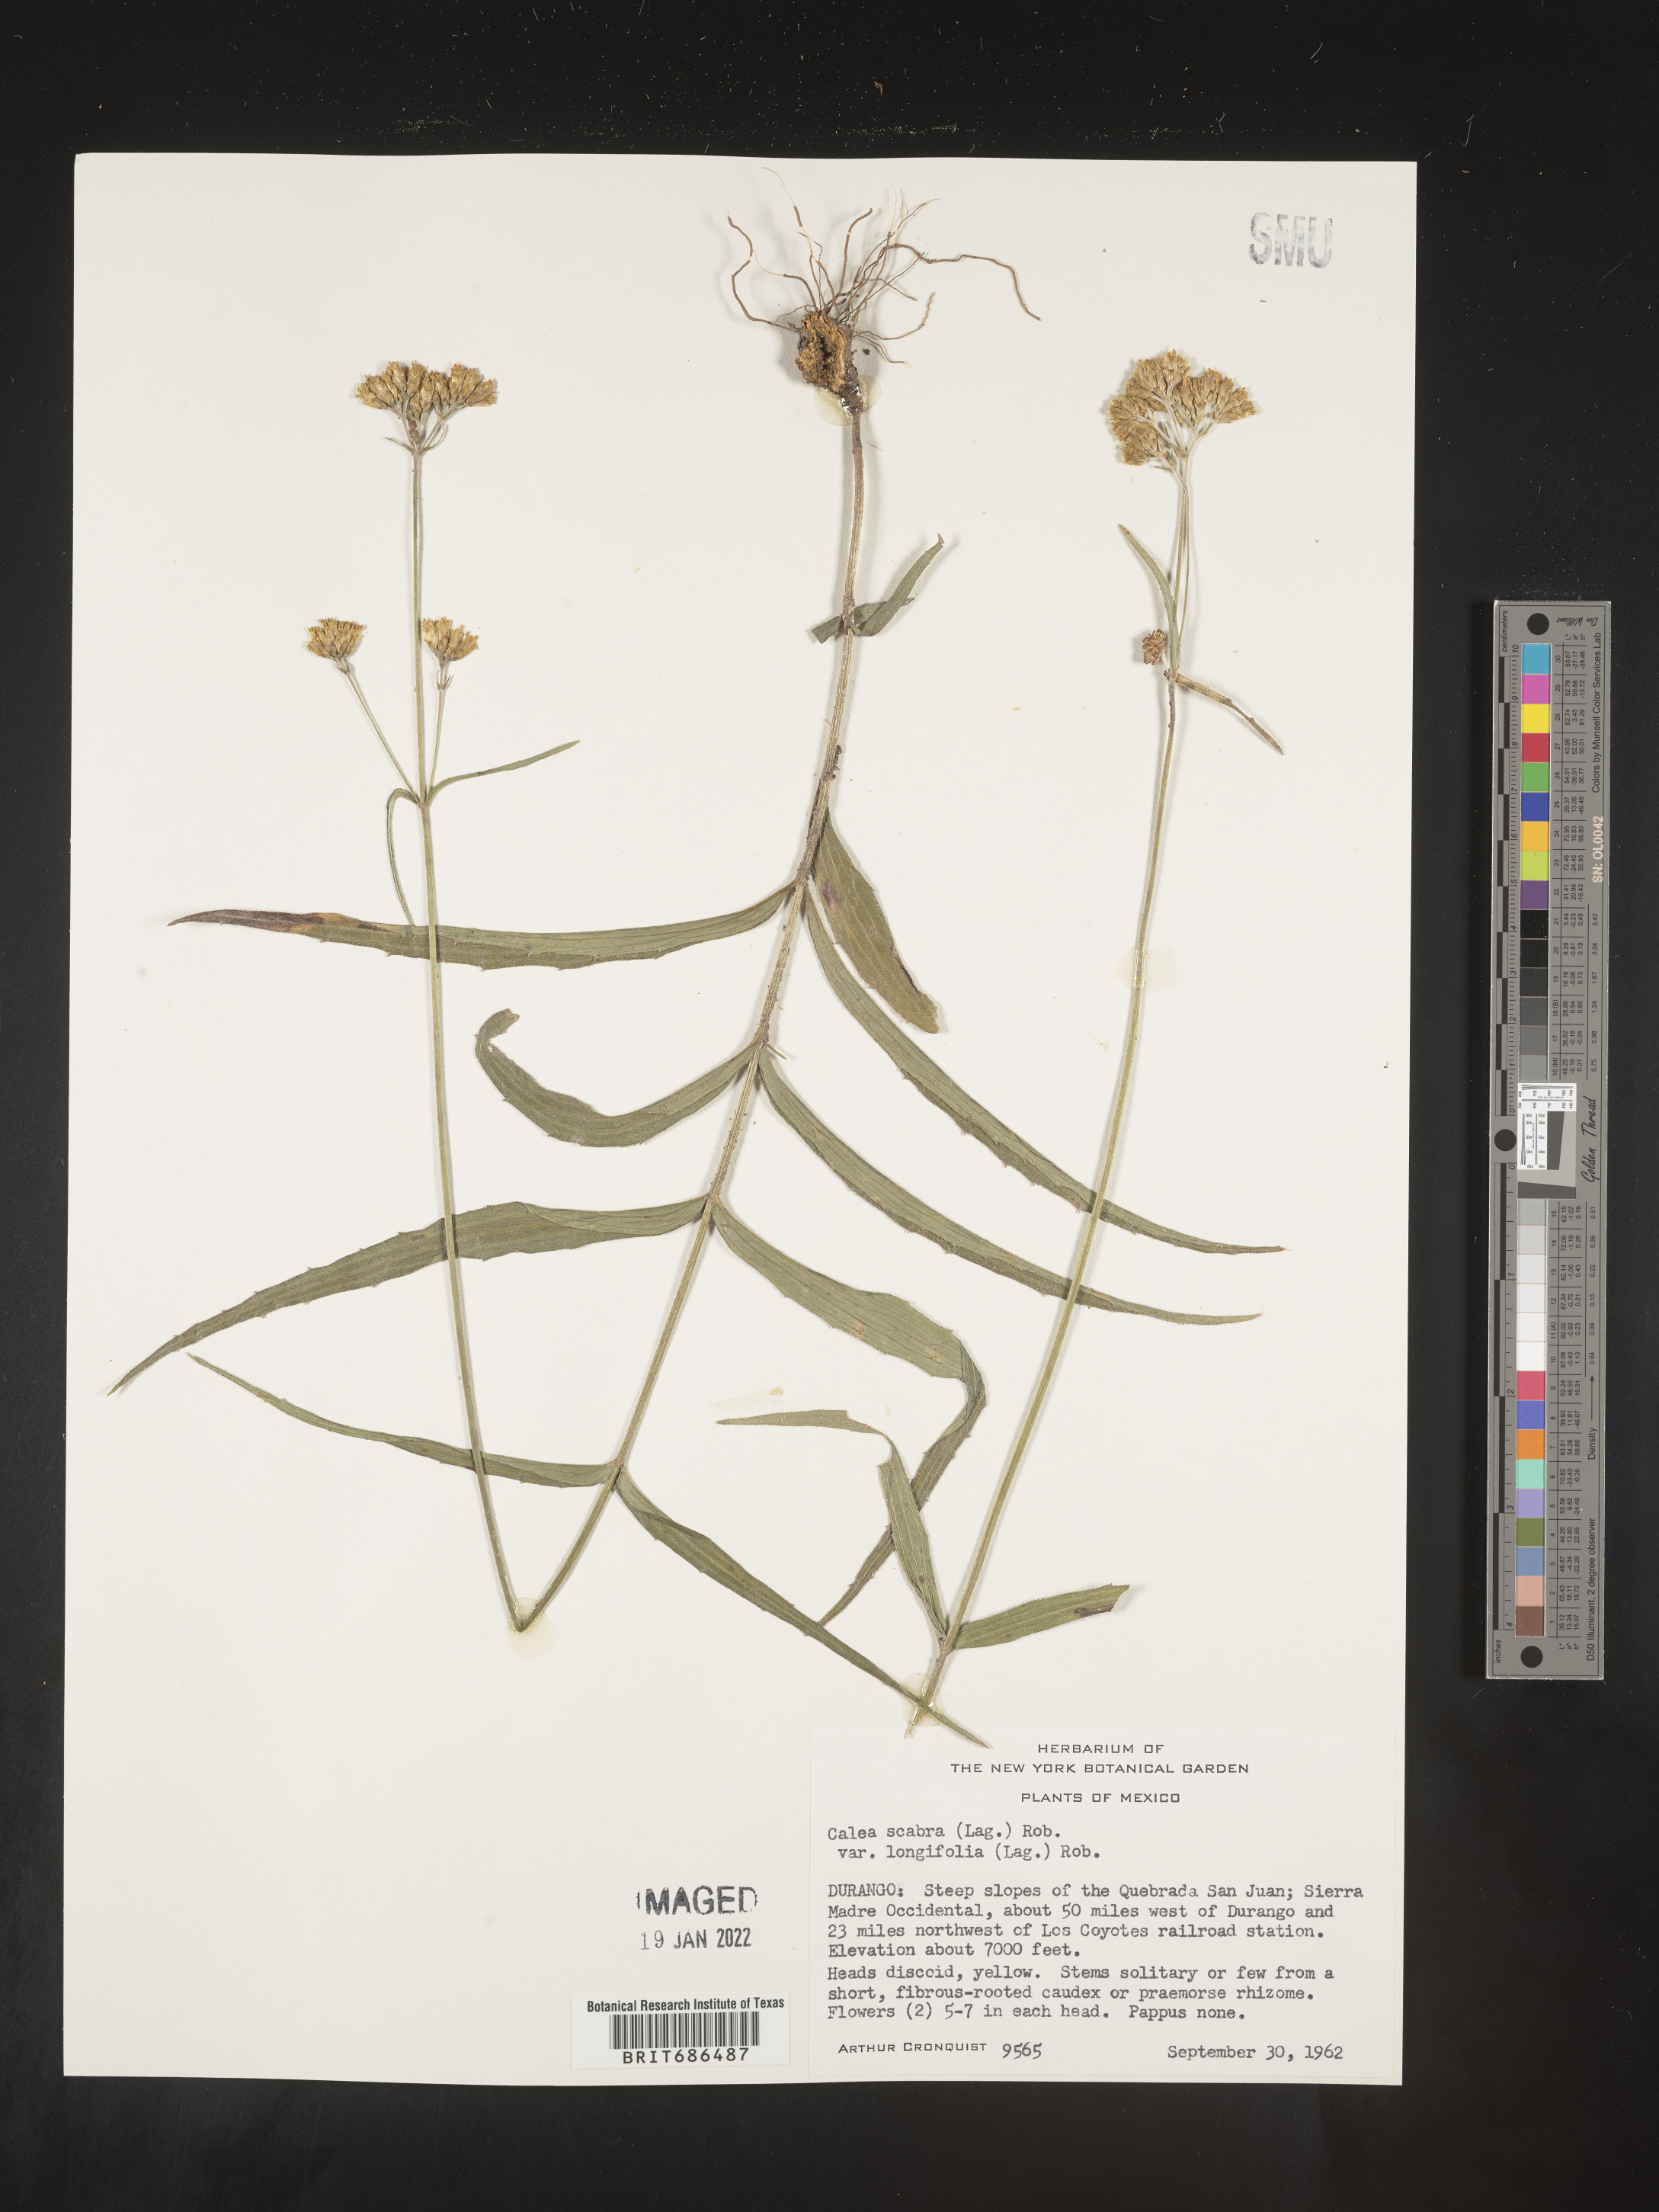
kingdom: Plantae
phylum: Tracheophyta
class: Magnoliopsida
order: Asterales
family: Asteraceae
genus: Alloispermum
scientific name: Alloispermum scabrum
